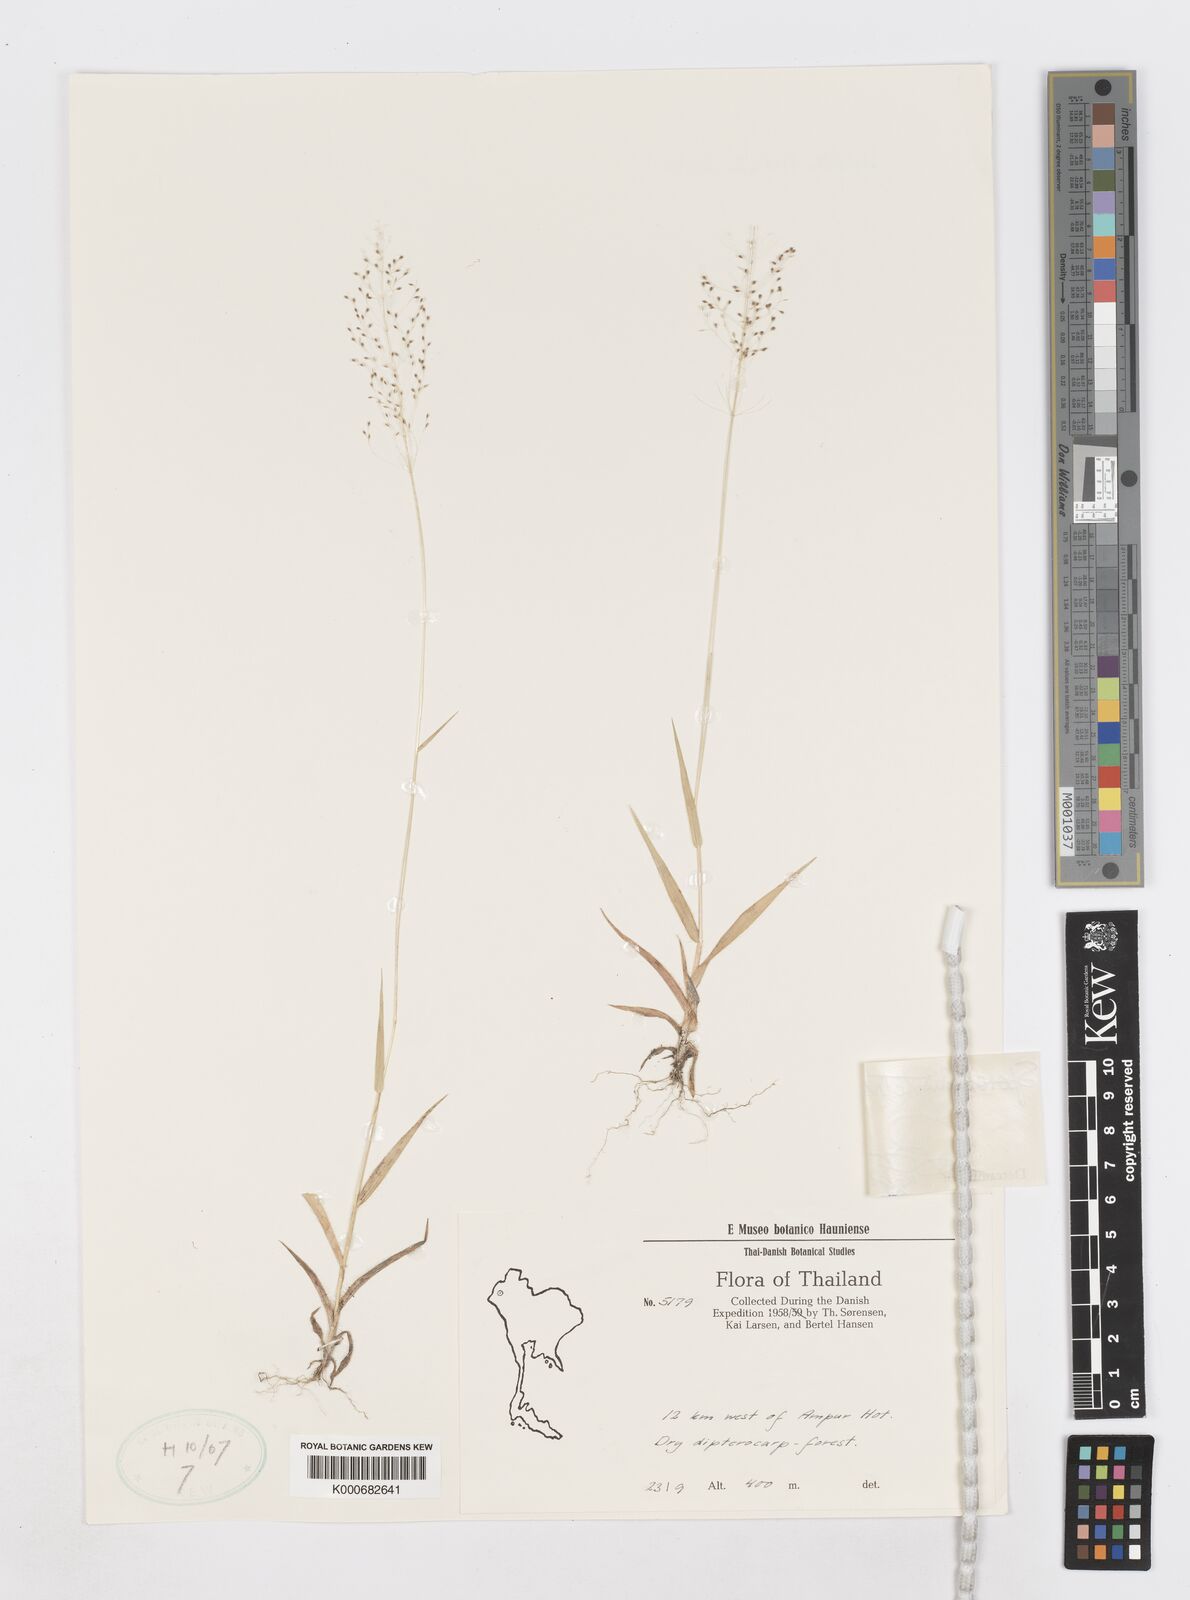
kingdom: Plantae
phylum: Tracheophyta
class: Liliopsida
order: Poales
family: Poaceae
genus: Sporobolus
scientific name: Sporobolus tetragonus
